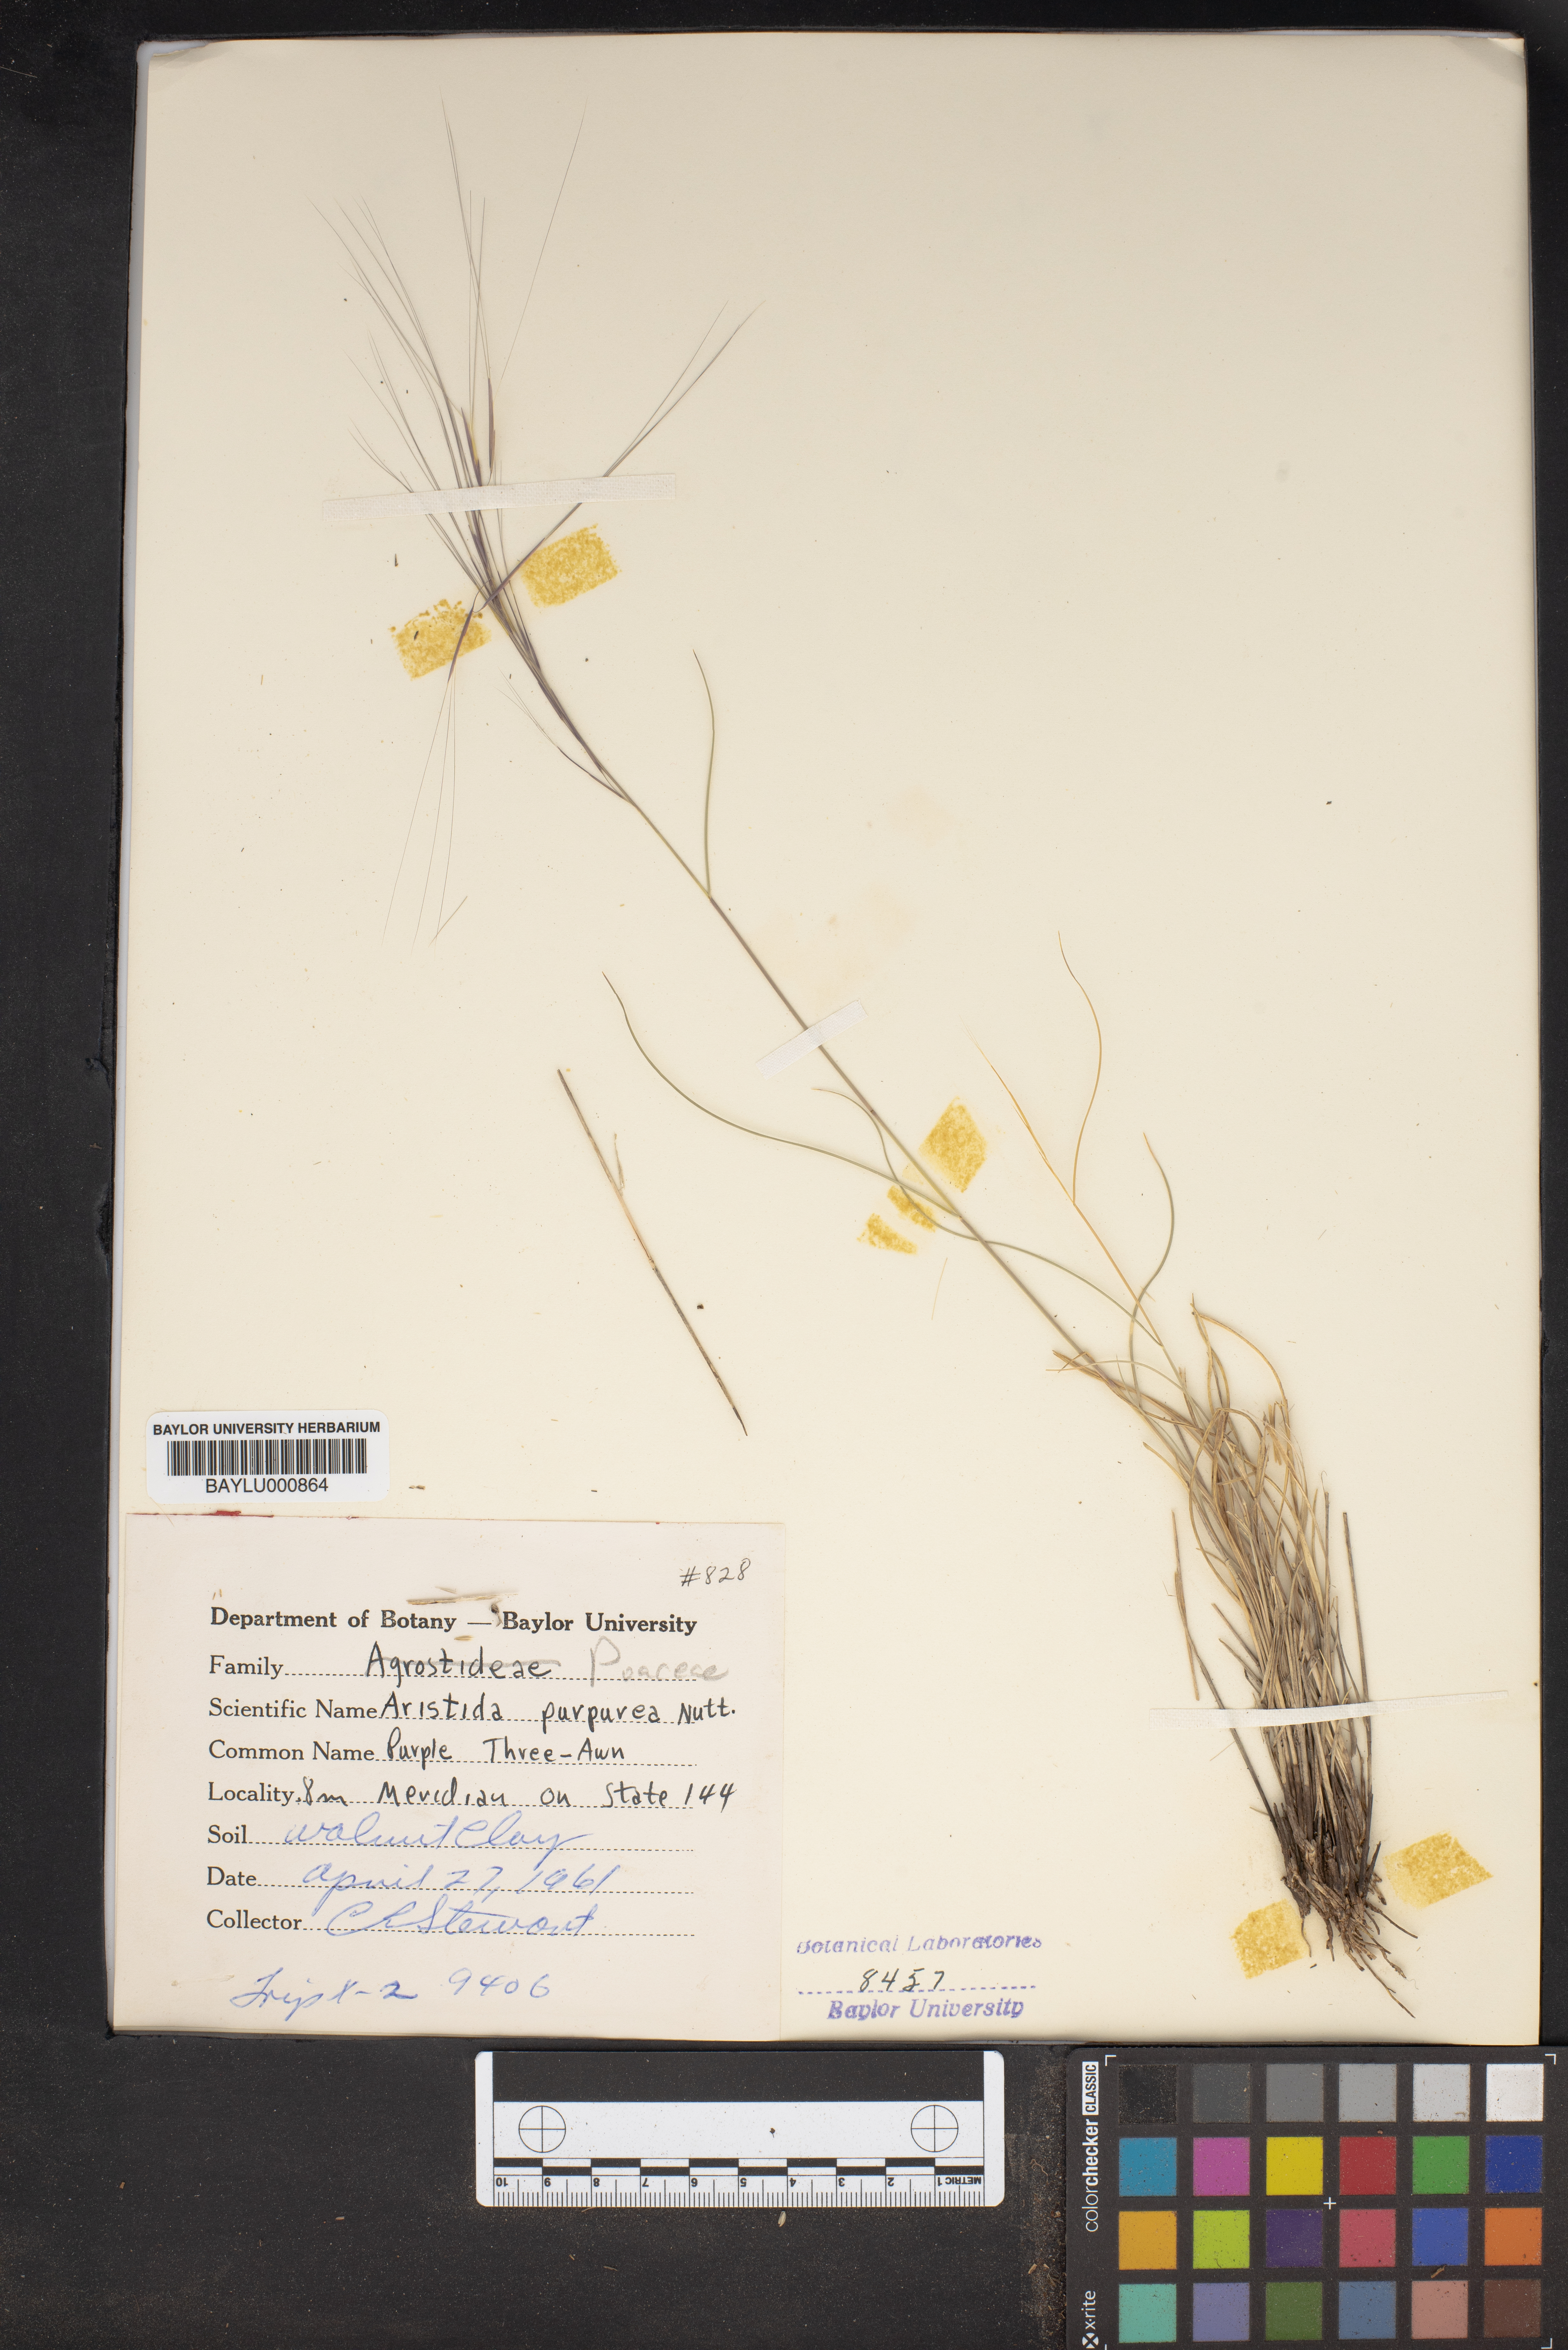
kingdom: Plantae
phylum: Tracheophyta
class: Liliopsida
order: Poales
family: Poaceae
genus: Aristida
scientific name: Aristida purpurea
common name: Purple threeawn
